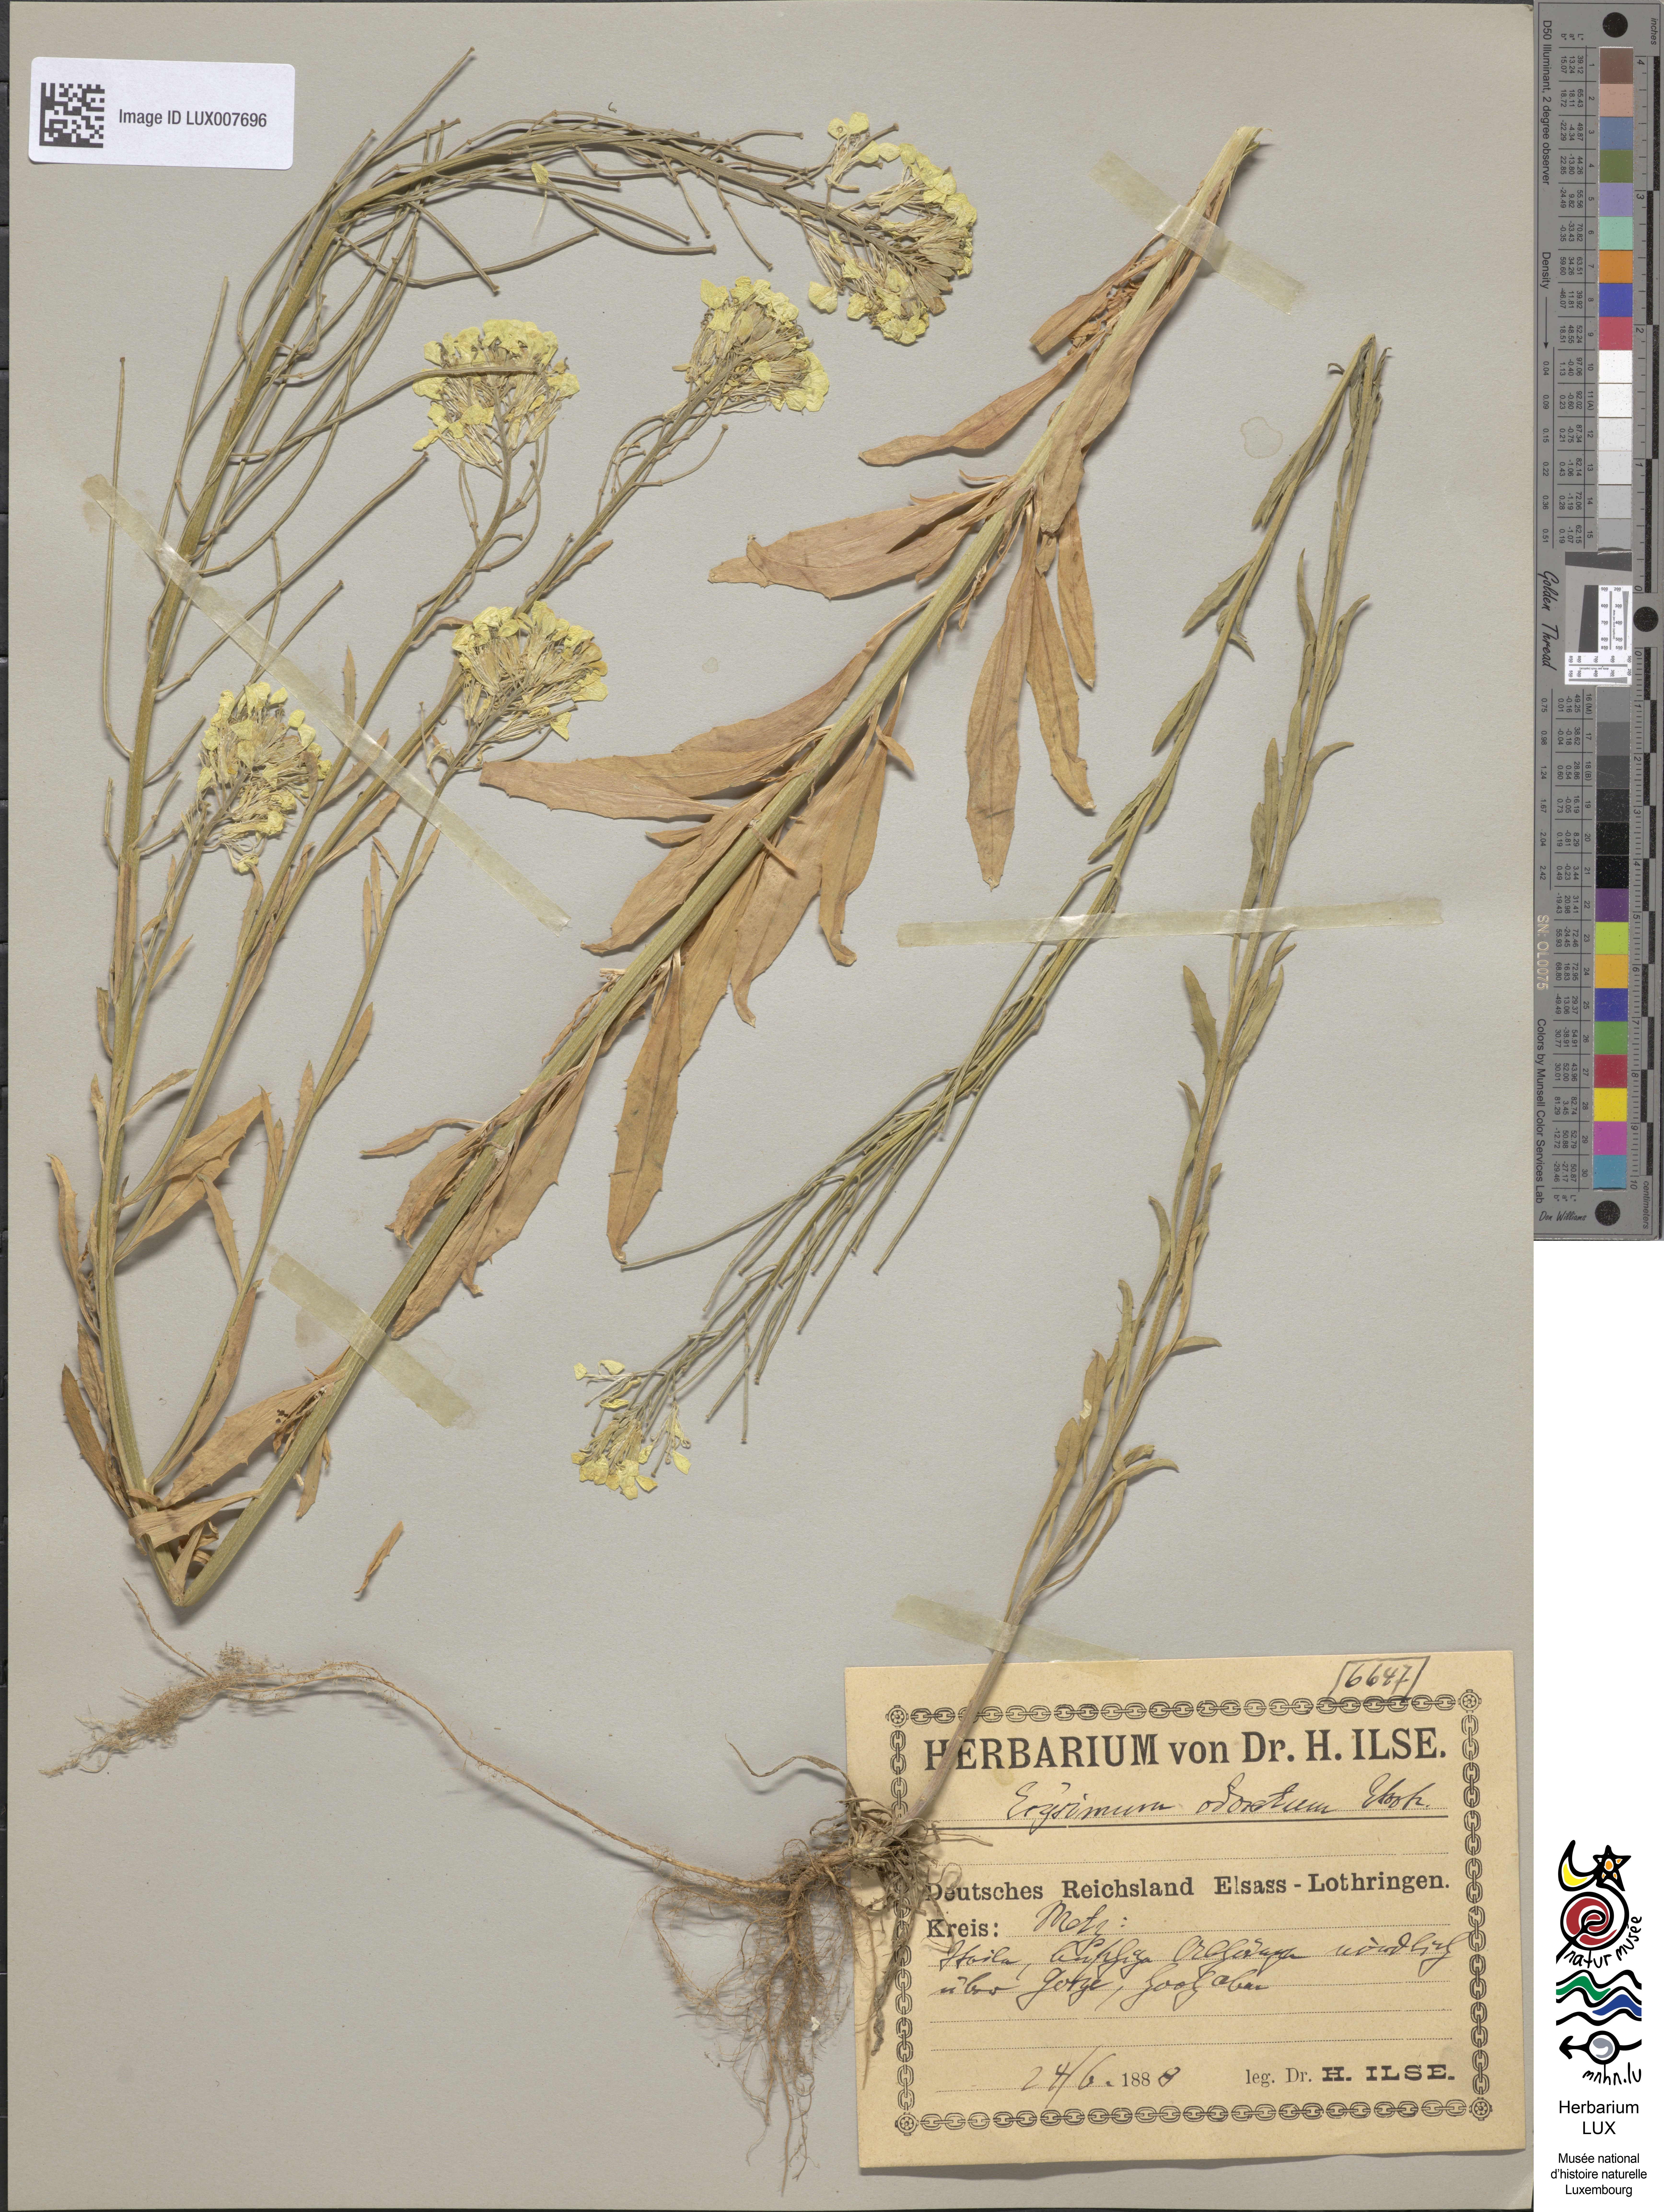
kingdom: Plantae
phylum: Tracheophyta
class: Magnoliopsida
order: Brassicales
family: Brassicaceae
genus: Erysimum
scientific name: Erysimum odoratum
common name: Smelly wallflower
